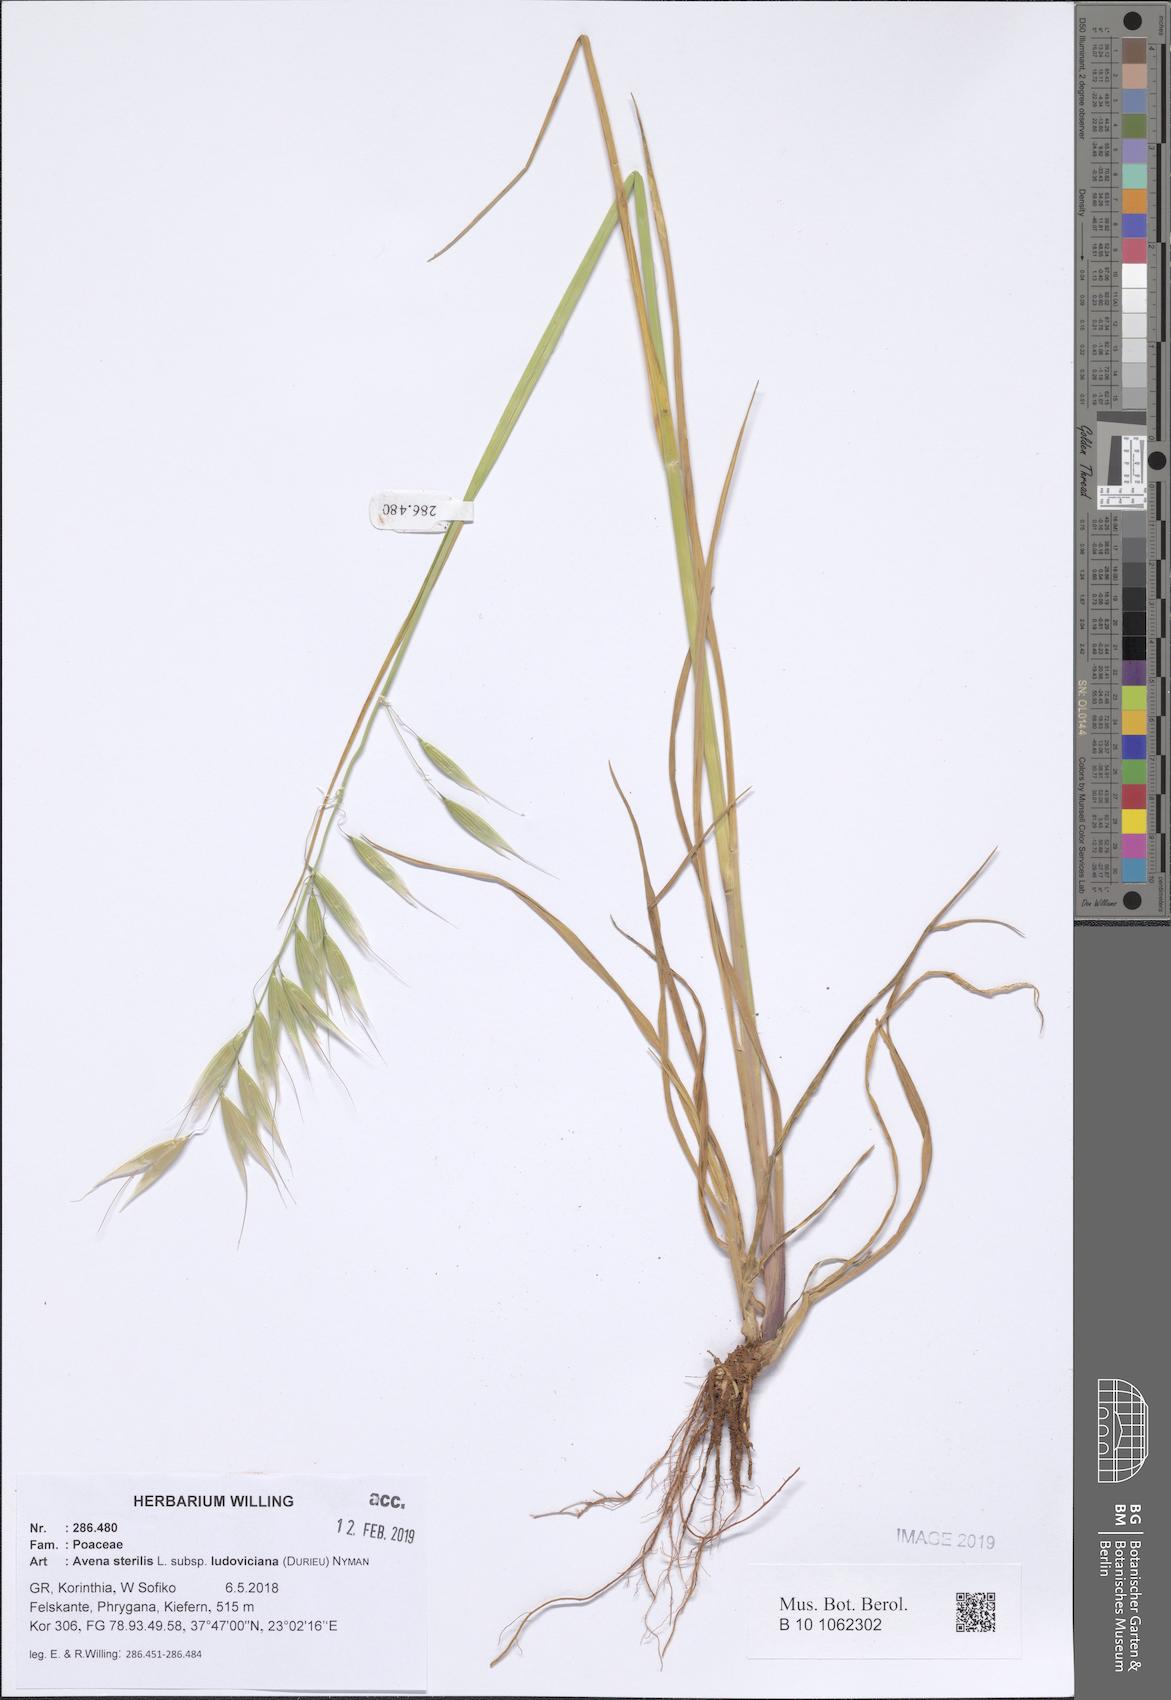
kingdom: Plantae
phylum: Tracheophyta
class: Liliopsida
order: Poales
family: Poaceae
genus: Avena
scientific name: Avena sterilis
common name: Animated oat
